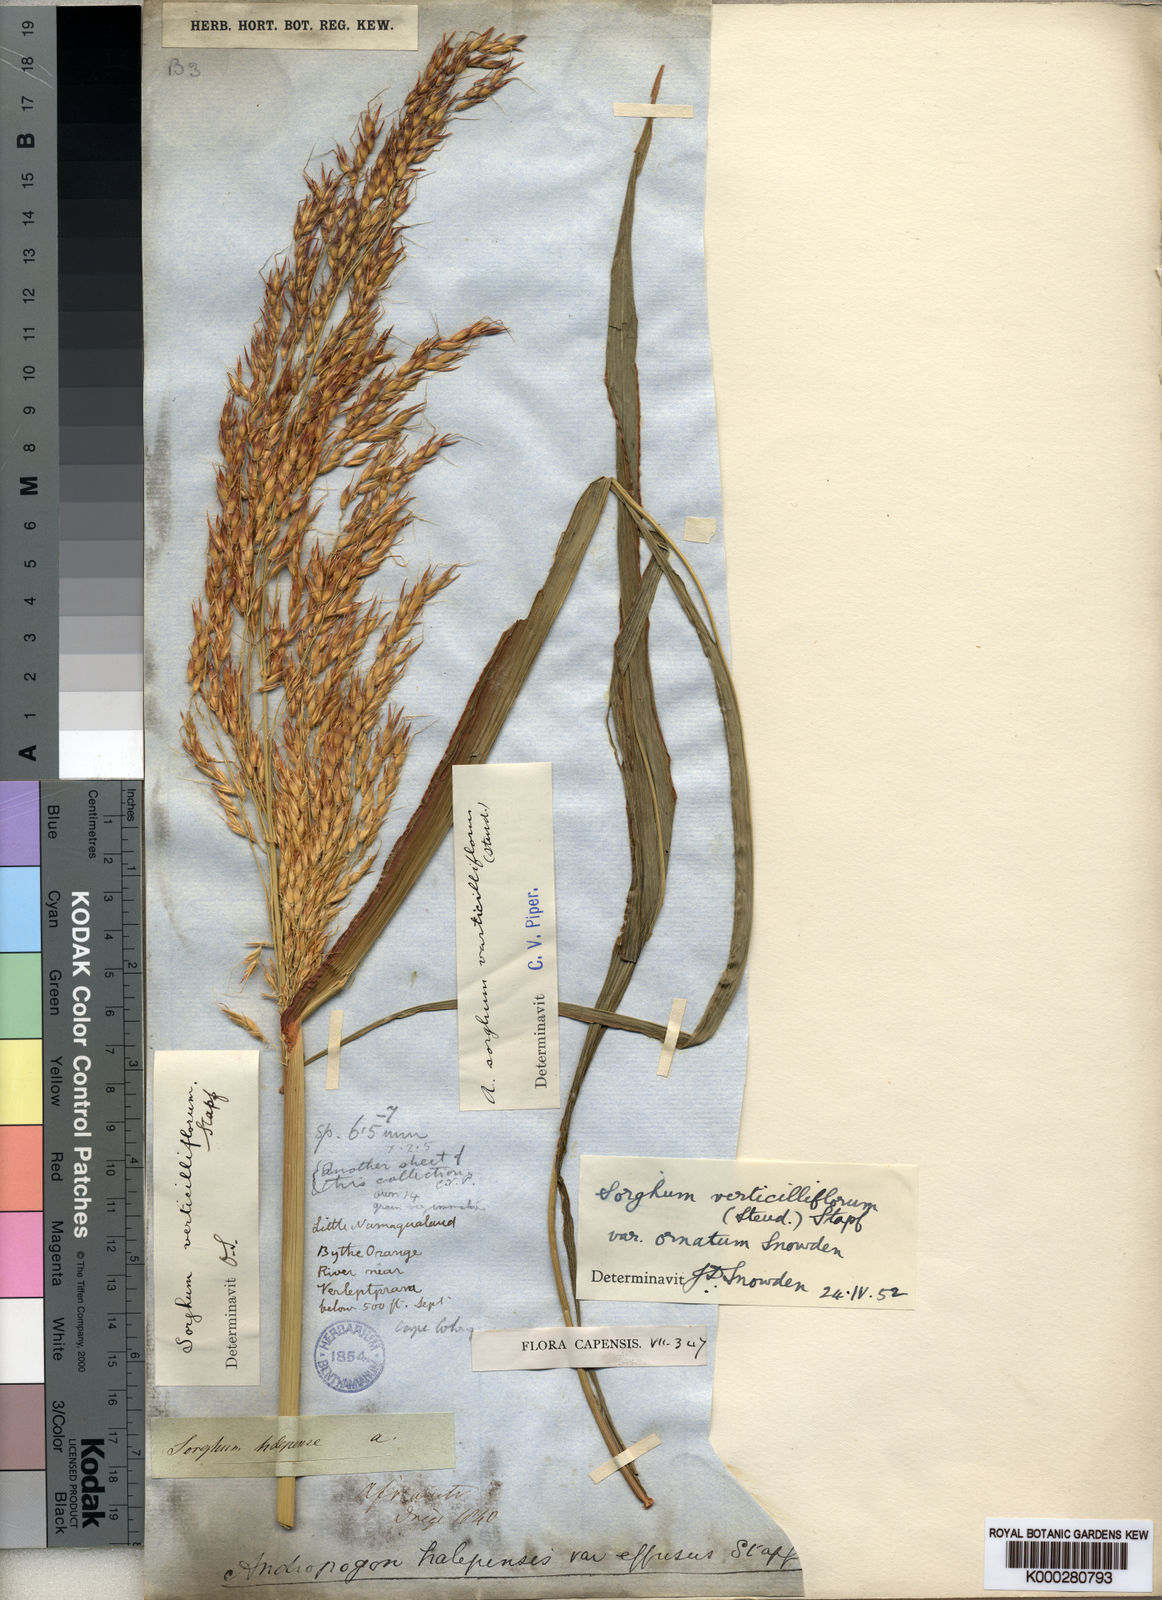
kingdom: Plantae
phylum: Tracheophyta
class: Liliopsida
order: Poales
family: Poaceae
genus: Sorghum
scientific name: Sorghum arundinaceum
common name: Sorghum
